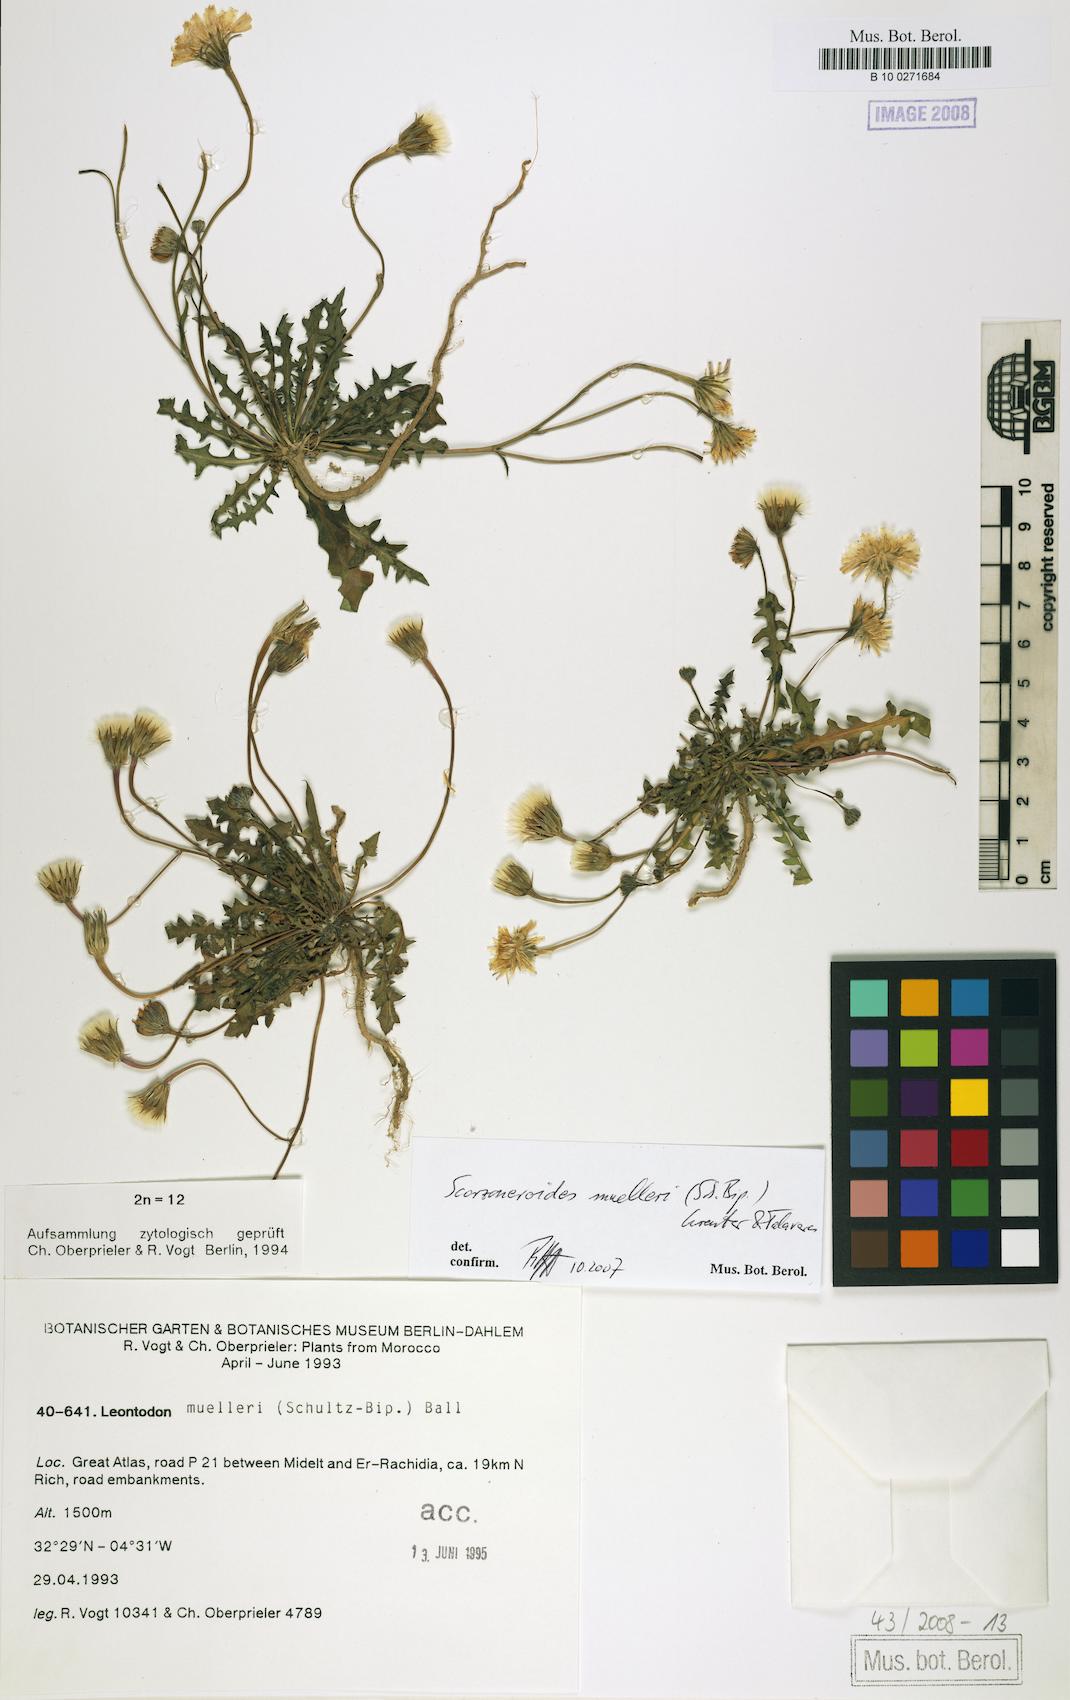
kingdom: Plantae
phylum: Tracheophyta
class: Magnoliopsida
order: Asterales
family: Asteraceae
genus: Scorzoneroides
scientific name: Scorzoneroides muelleri
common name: Daisy
